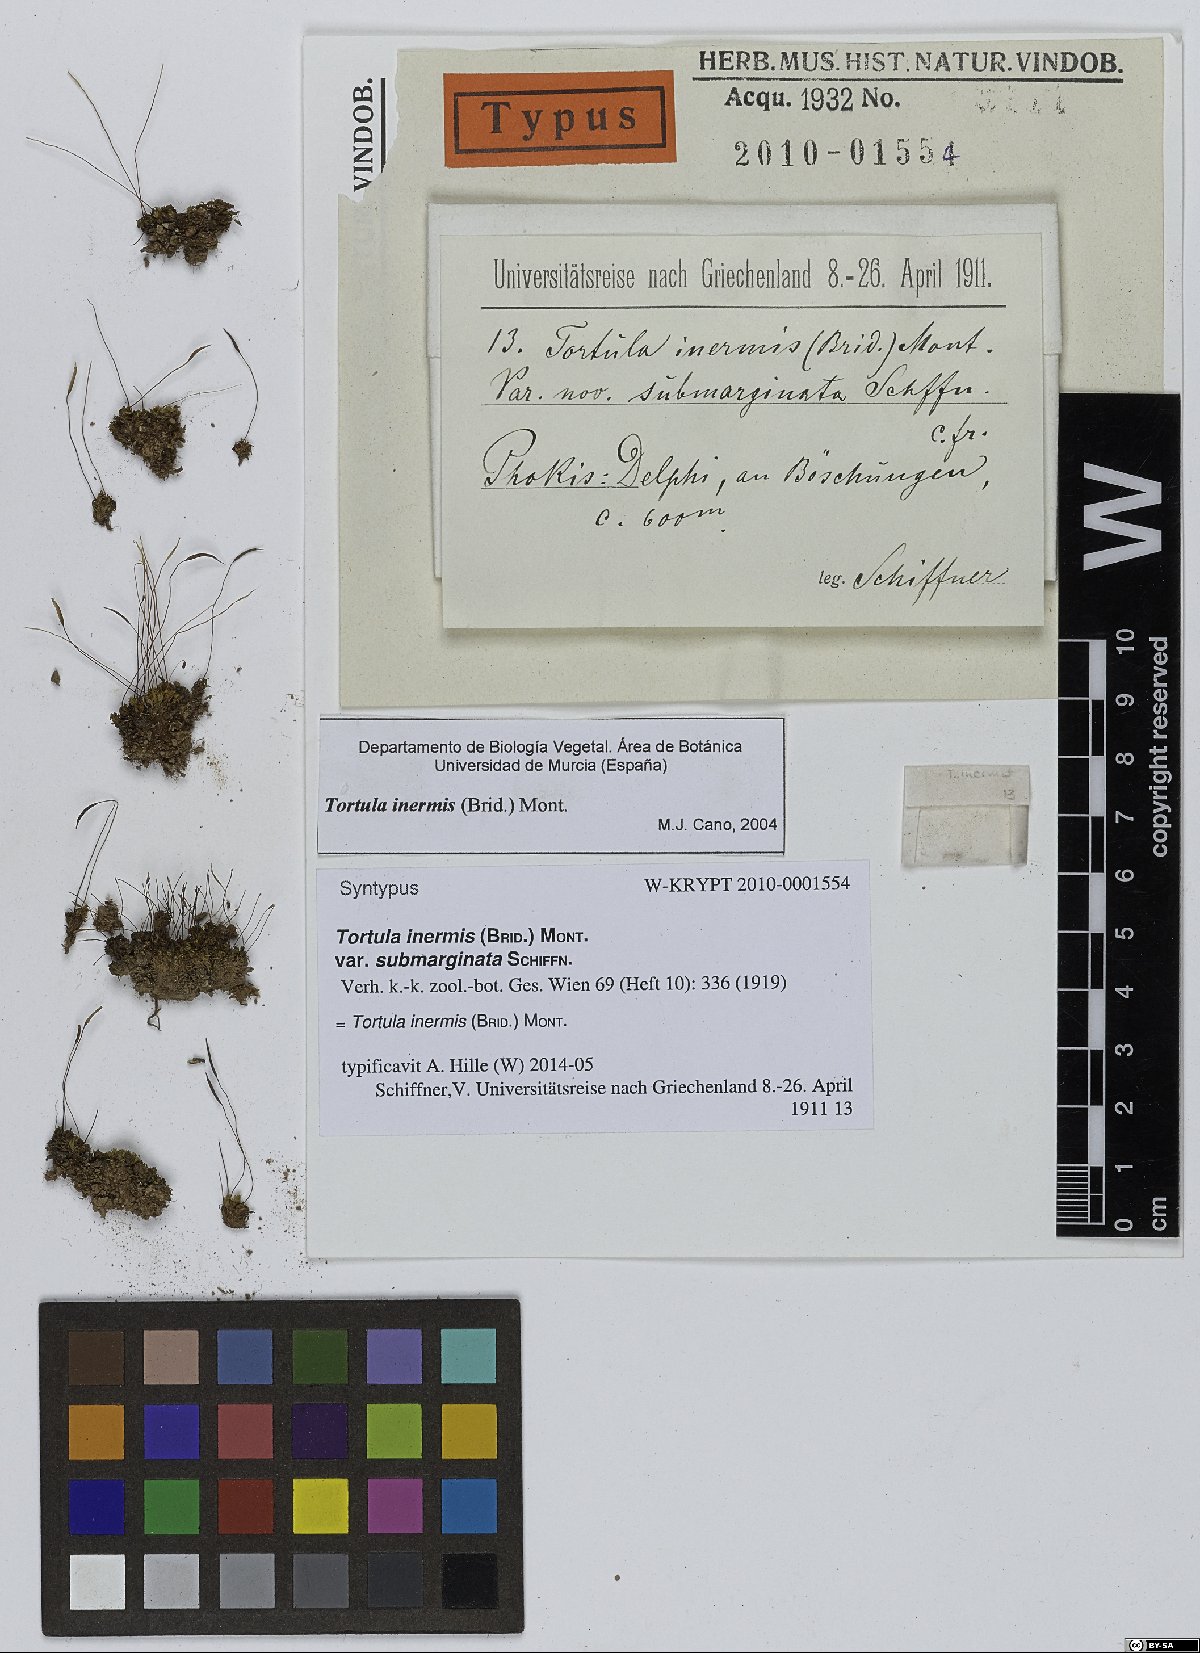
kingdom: Plantae
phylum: Bryophyta
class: Bryopsida
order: Pottiales
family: Pottiaceae
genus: Tortula
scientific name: Tortula inermis
